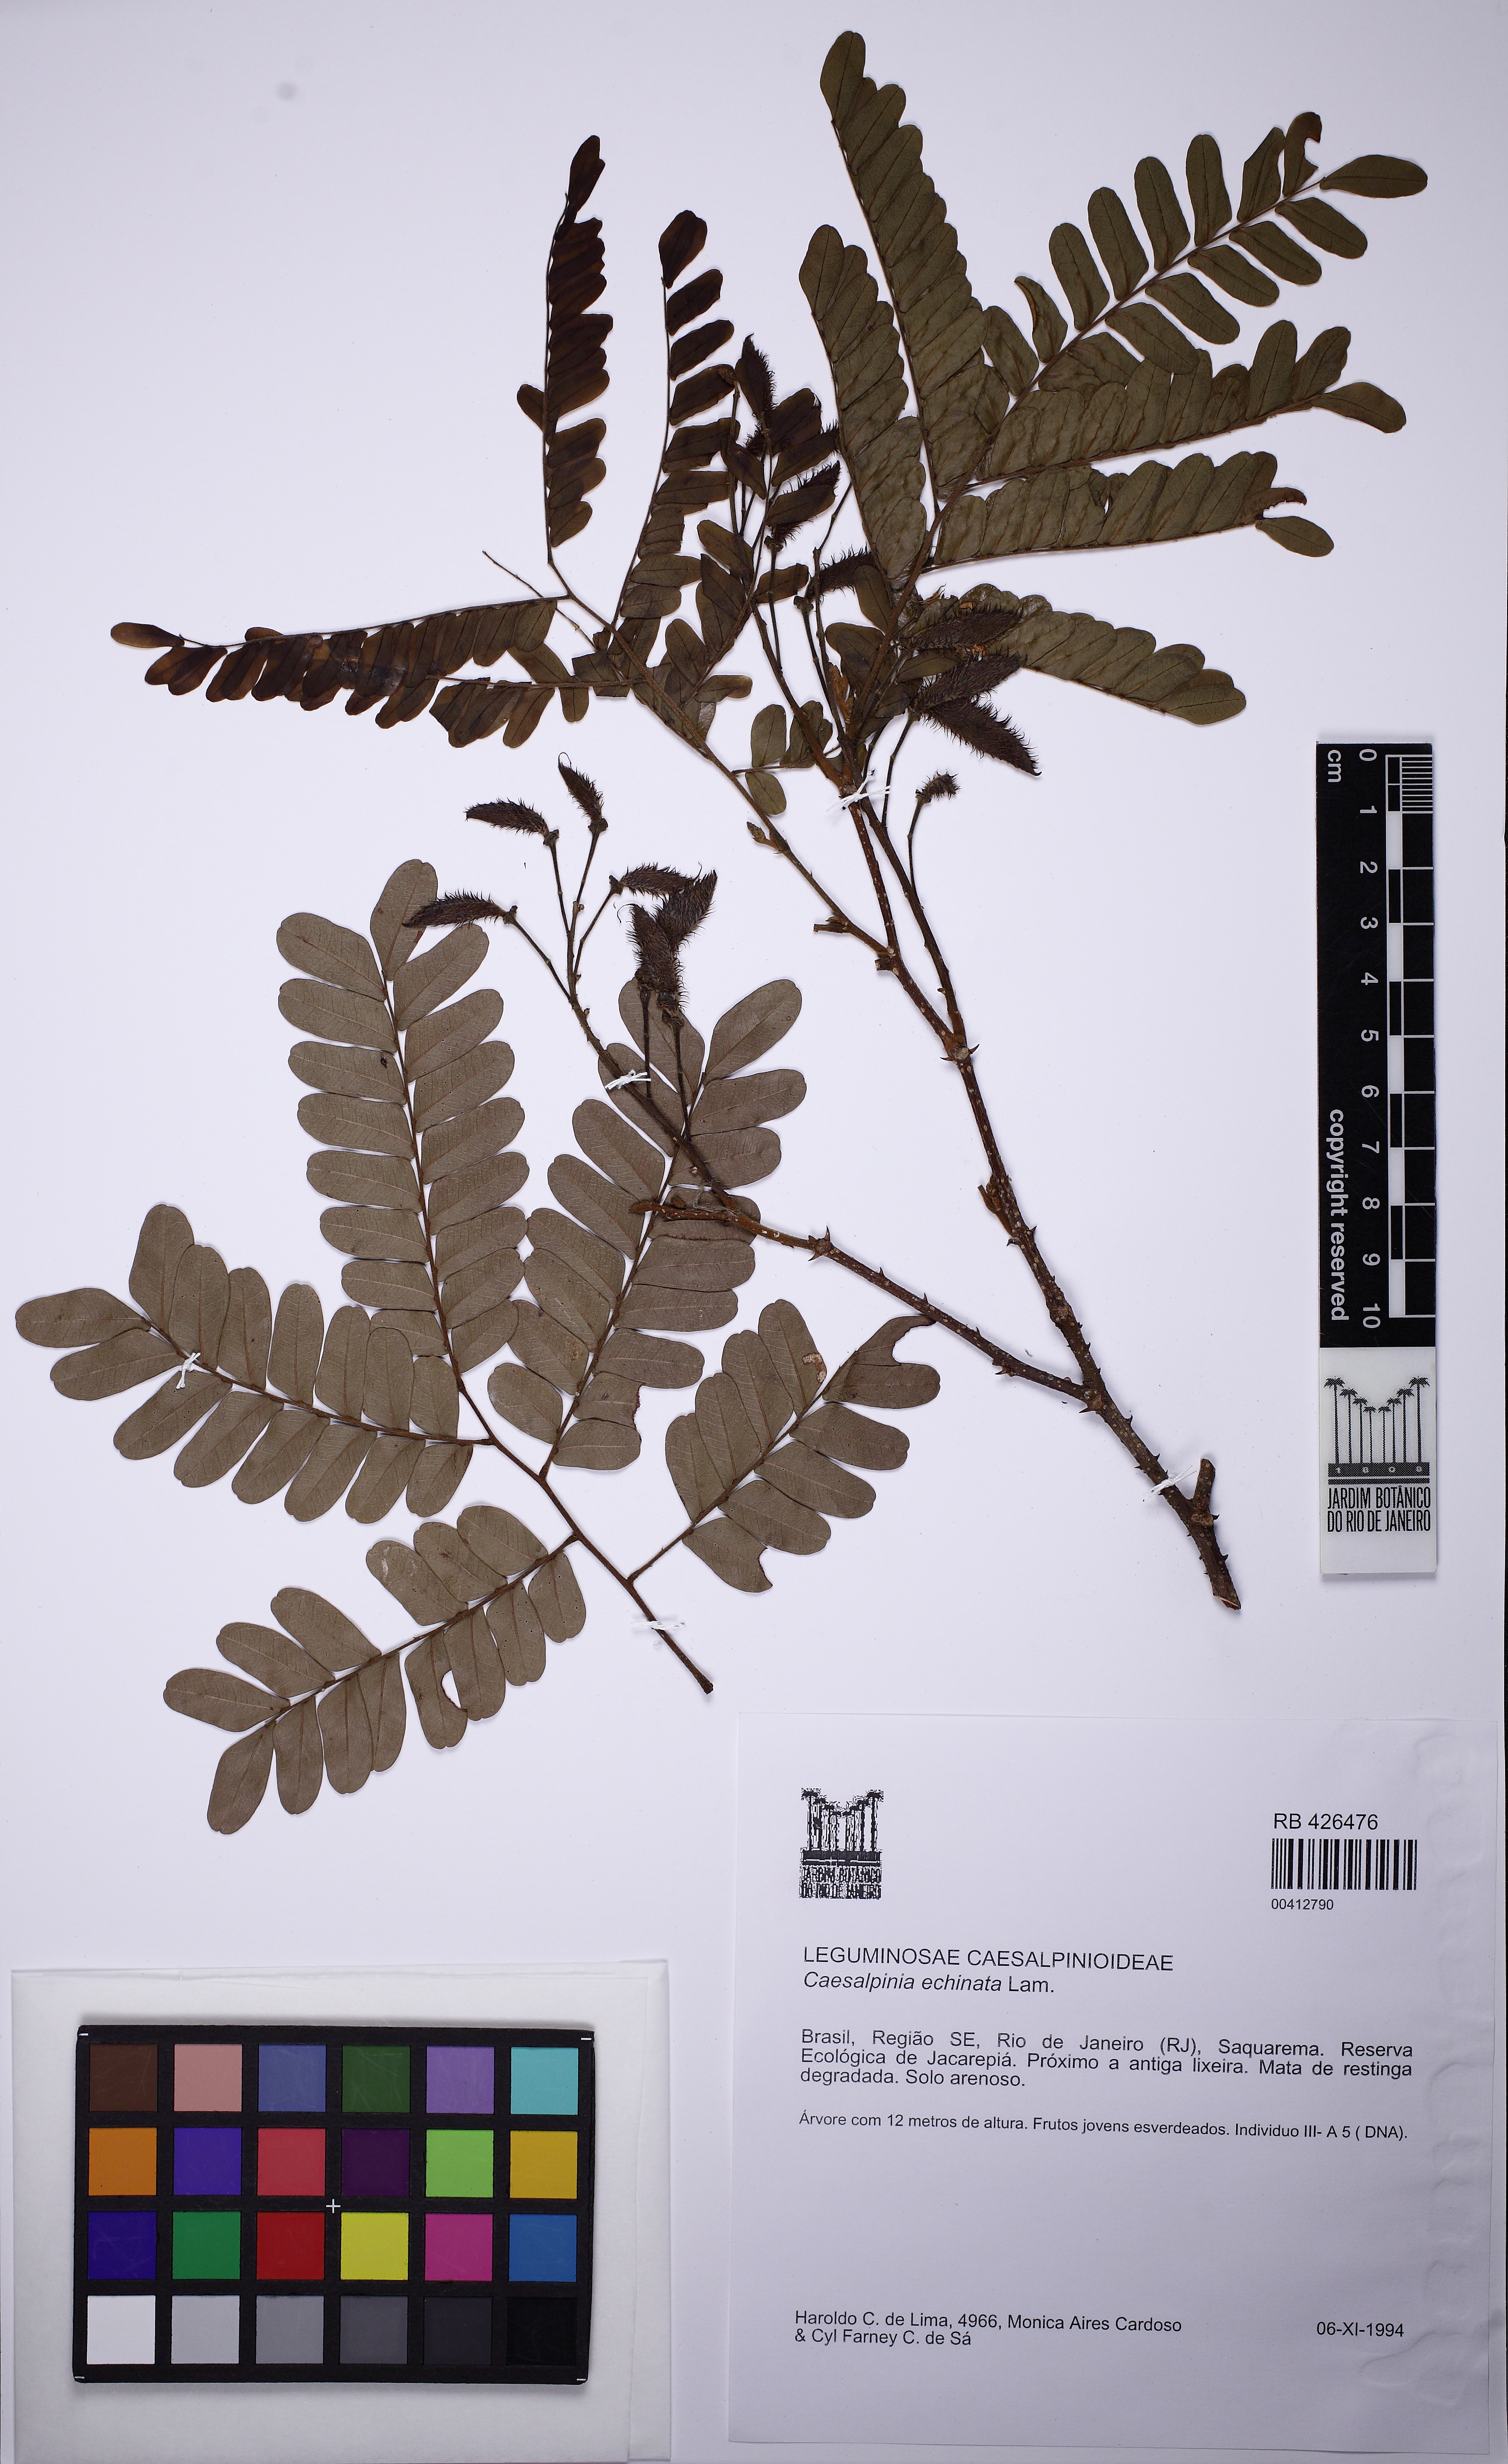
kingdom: Plantae
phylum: Tracheophyta
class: Magnoliopsida
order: Fabales
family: Fabaceae
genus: Paubrasilia
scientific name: Paubrasilia echinata
